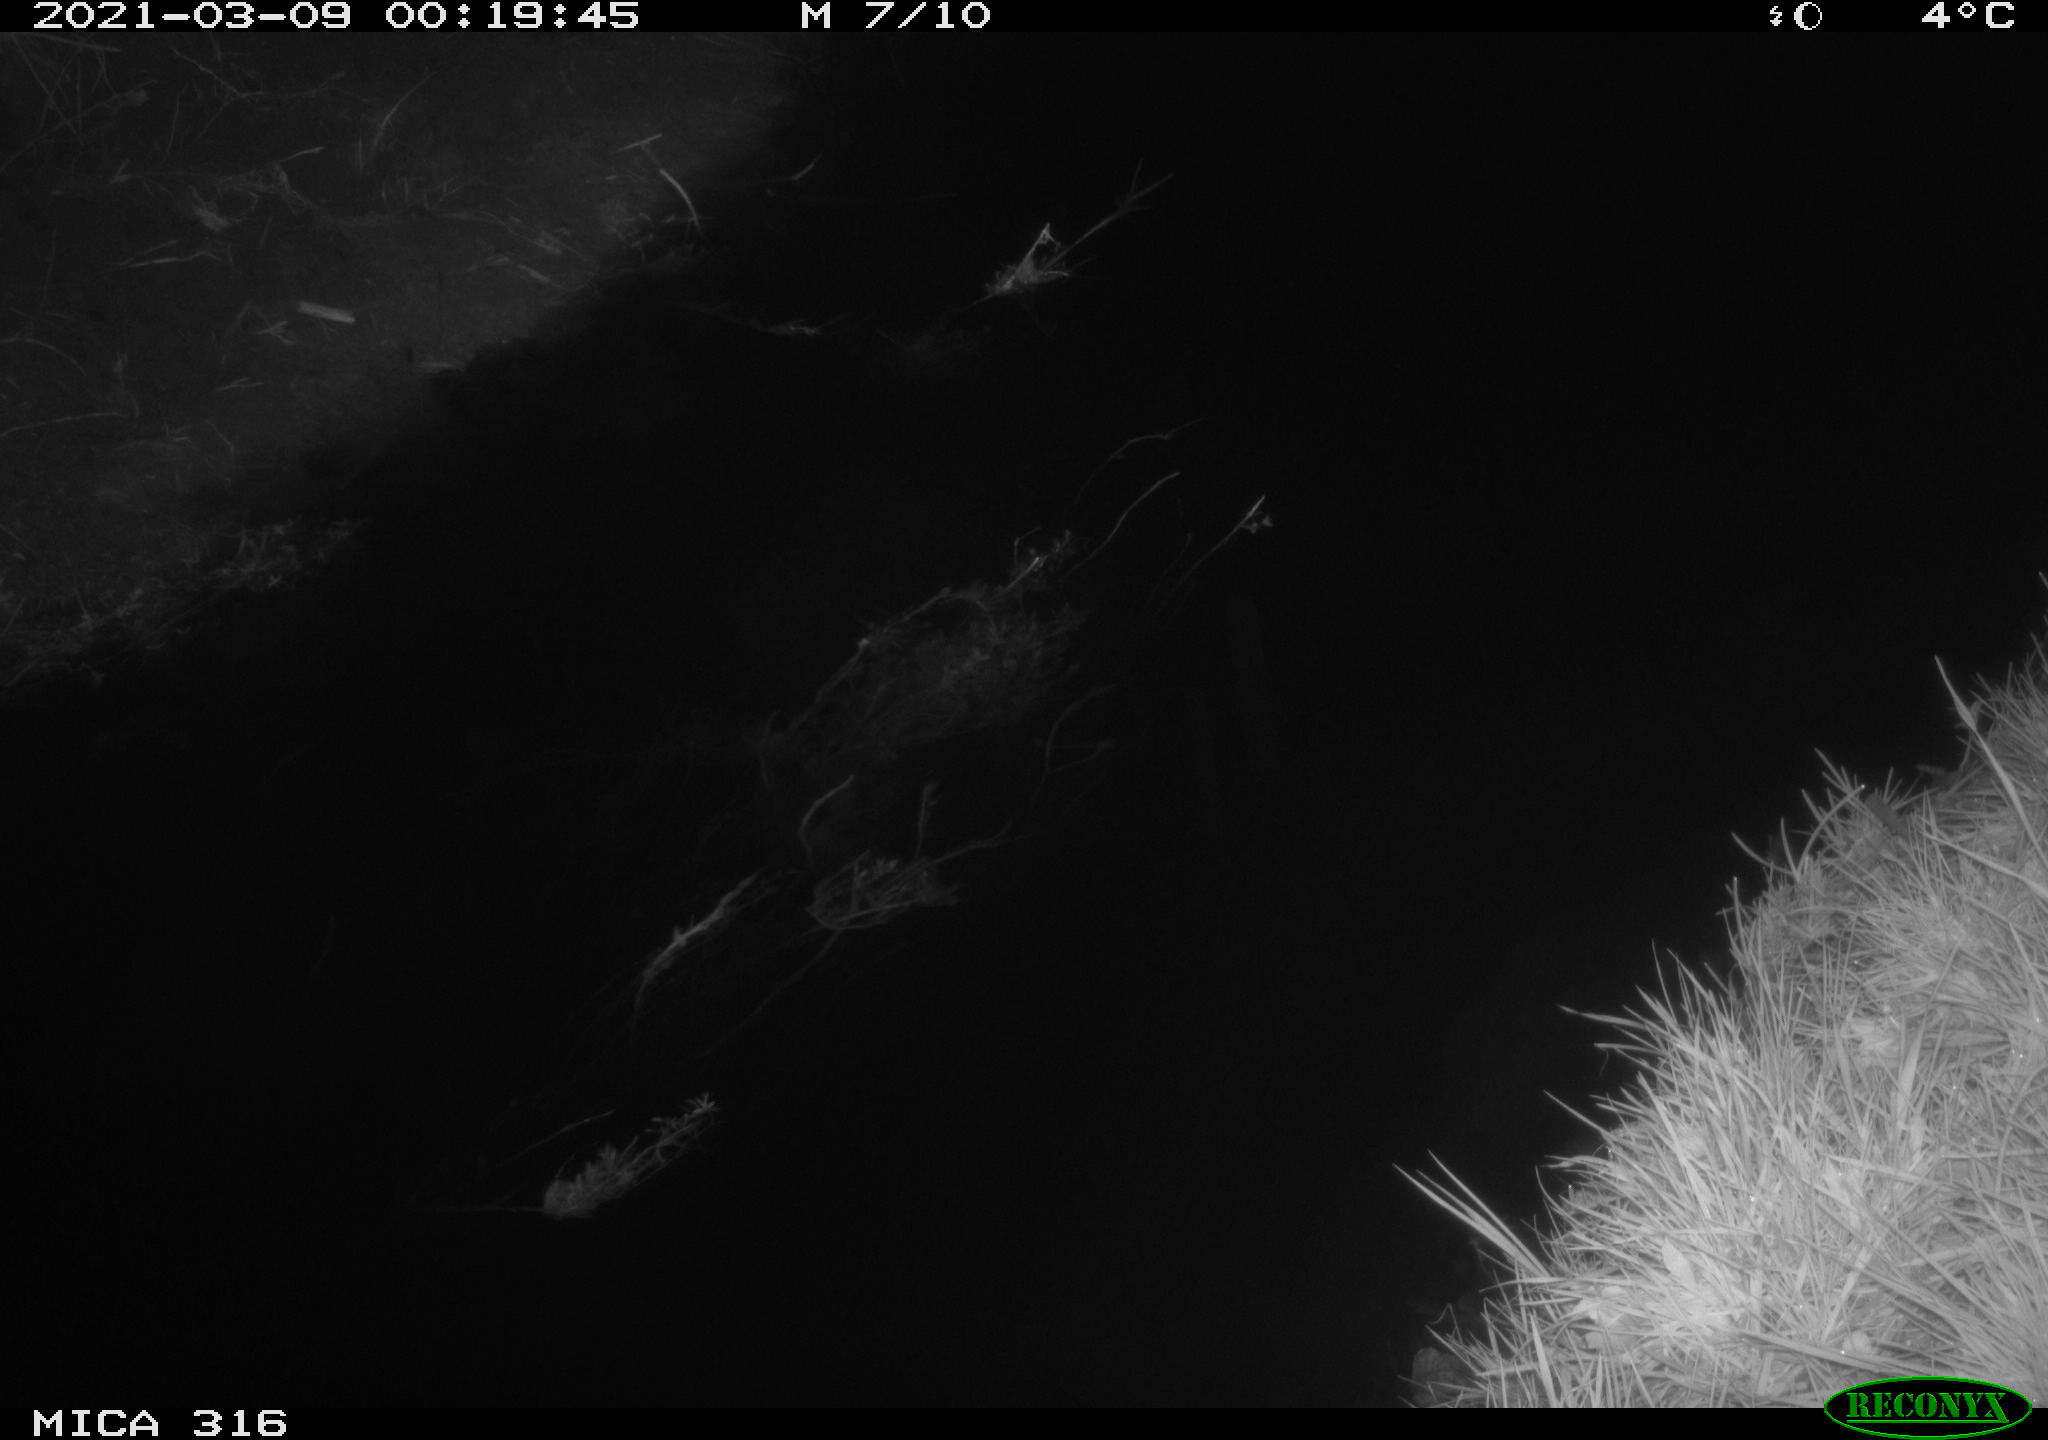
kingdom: Animalia
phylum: Chordata
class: Mammalia
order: Carnivora
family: Canidae
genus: Vulpes
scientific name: Vulpes vulpes
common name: Red fox
